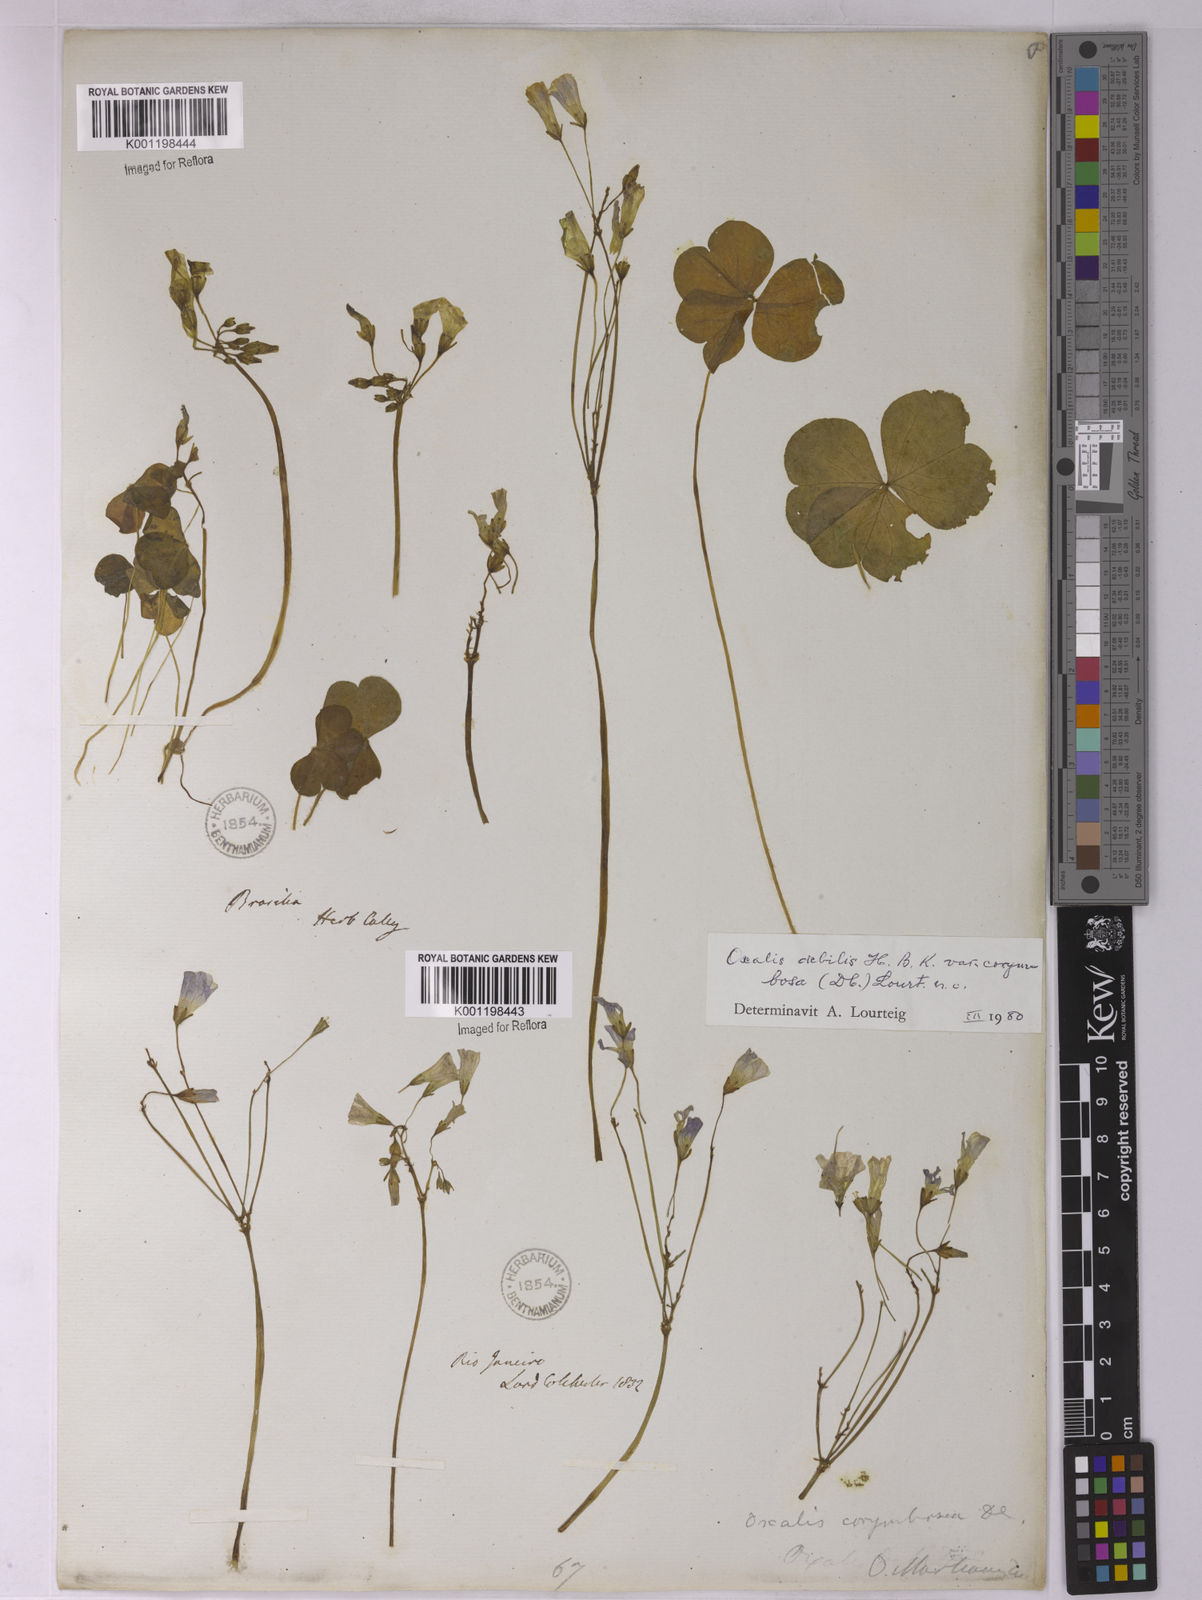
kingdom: Plantae
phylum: Tracheophyta
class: Magnoliopsida
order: Oxalidales
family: Oxalidaceae
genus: Oxalis
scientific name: Oxalis debilis
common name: Large-flowered pink-sorrel
